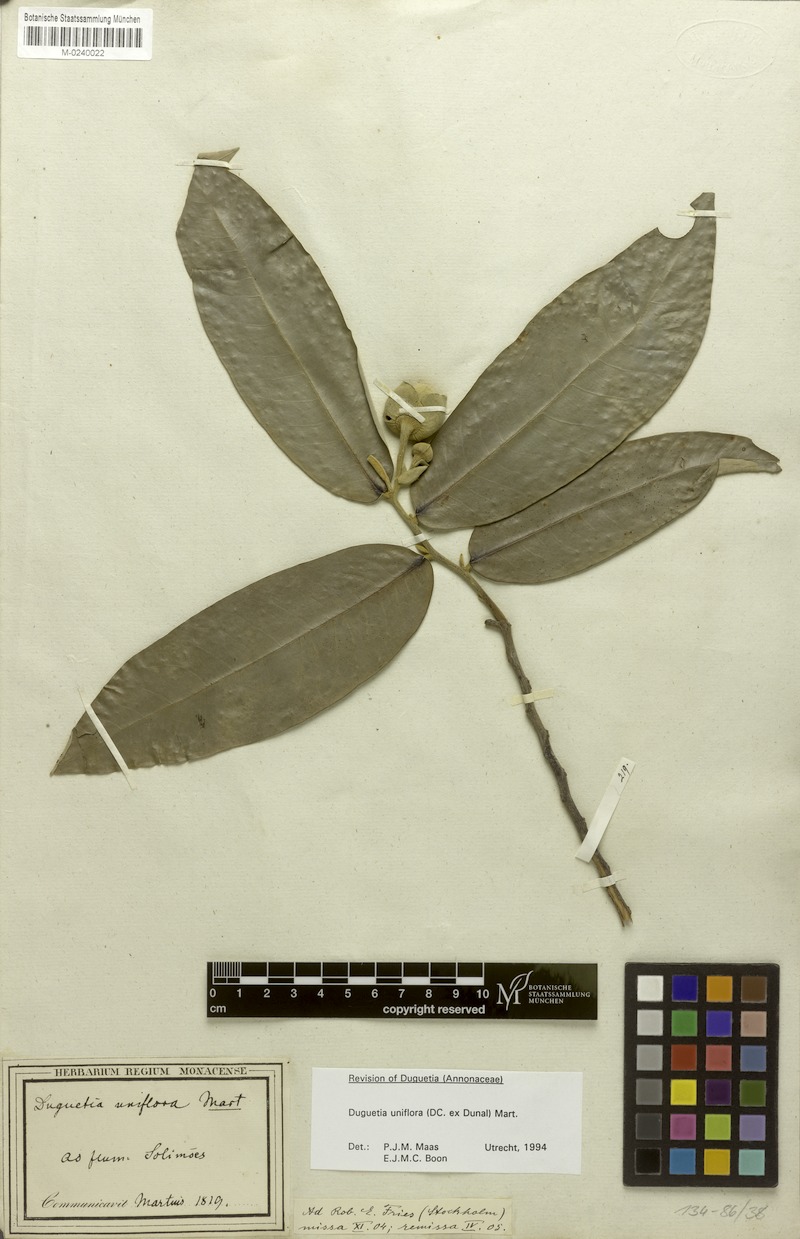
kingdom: Plantae
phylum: Tracheophyta
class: Magnoliopsida
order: Magnoliales
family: Annonaceae
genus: Duguetia
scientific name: Duguetia uniflora
